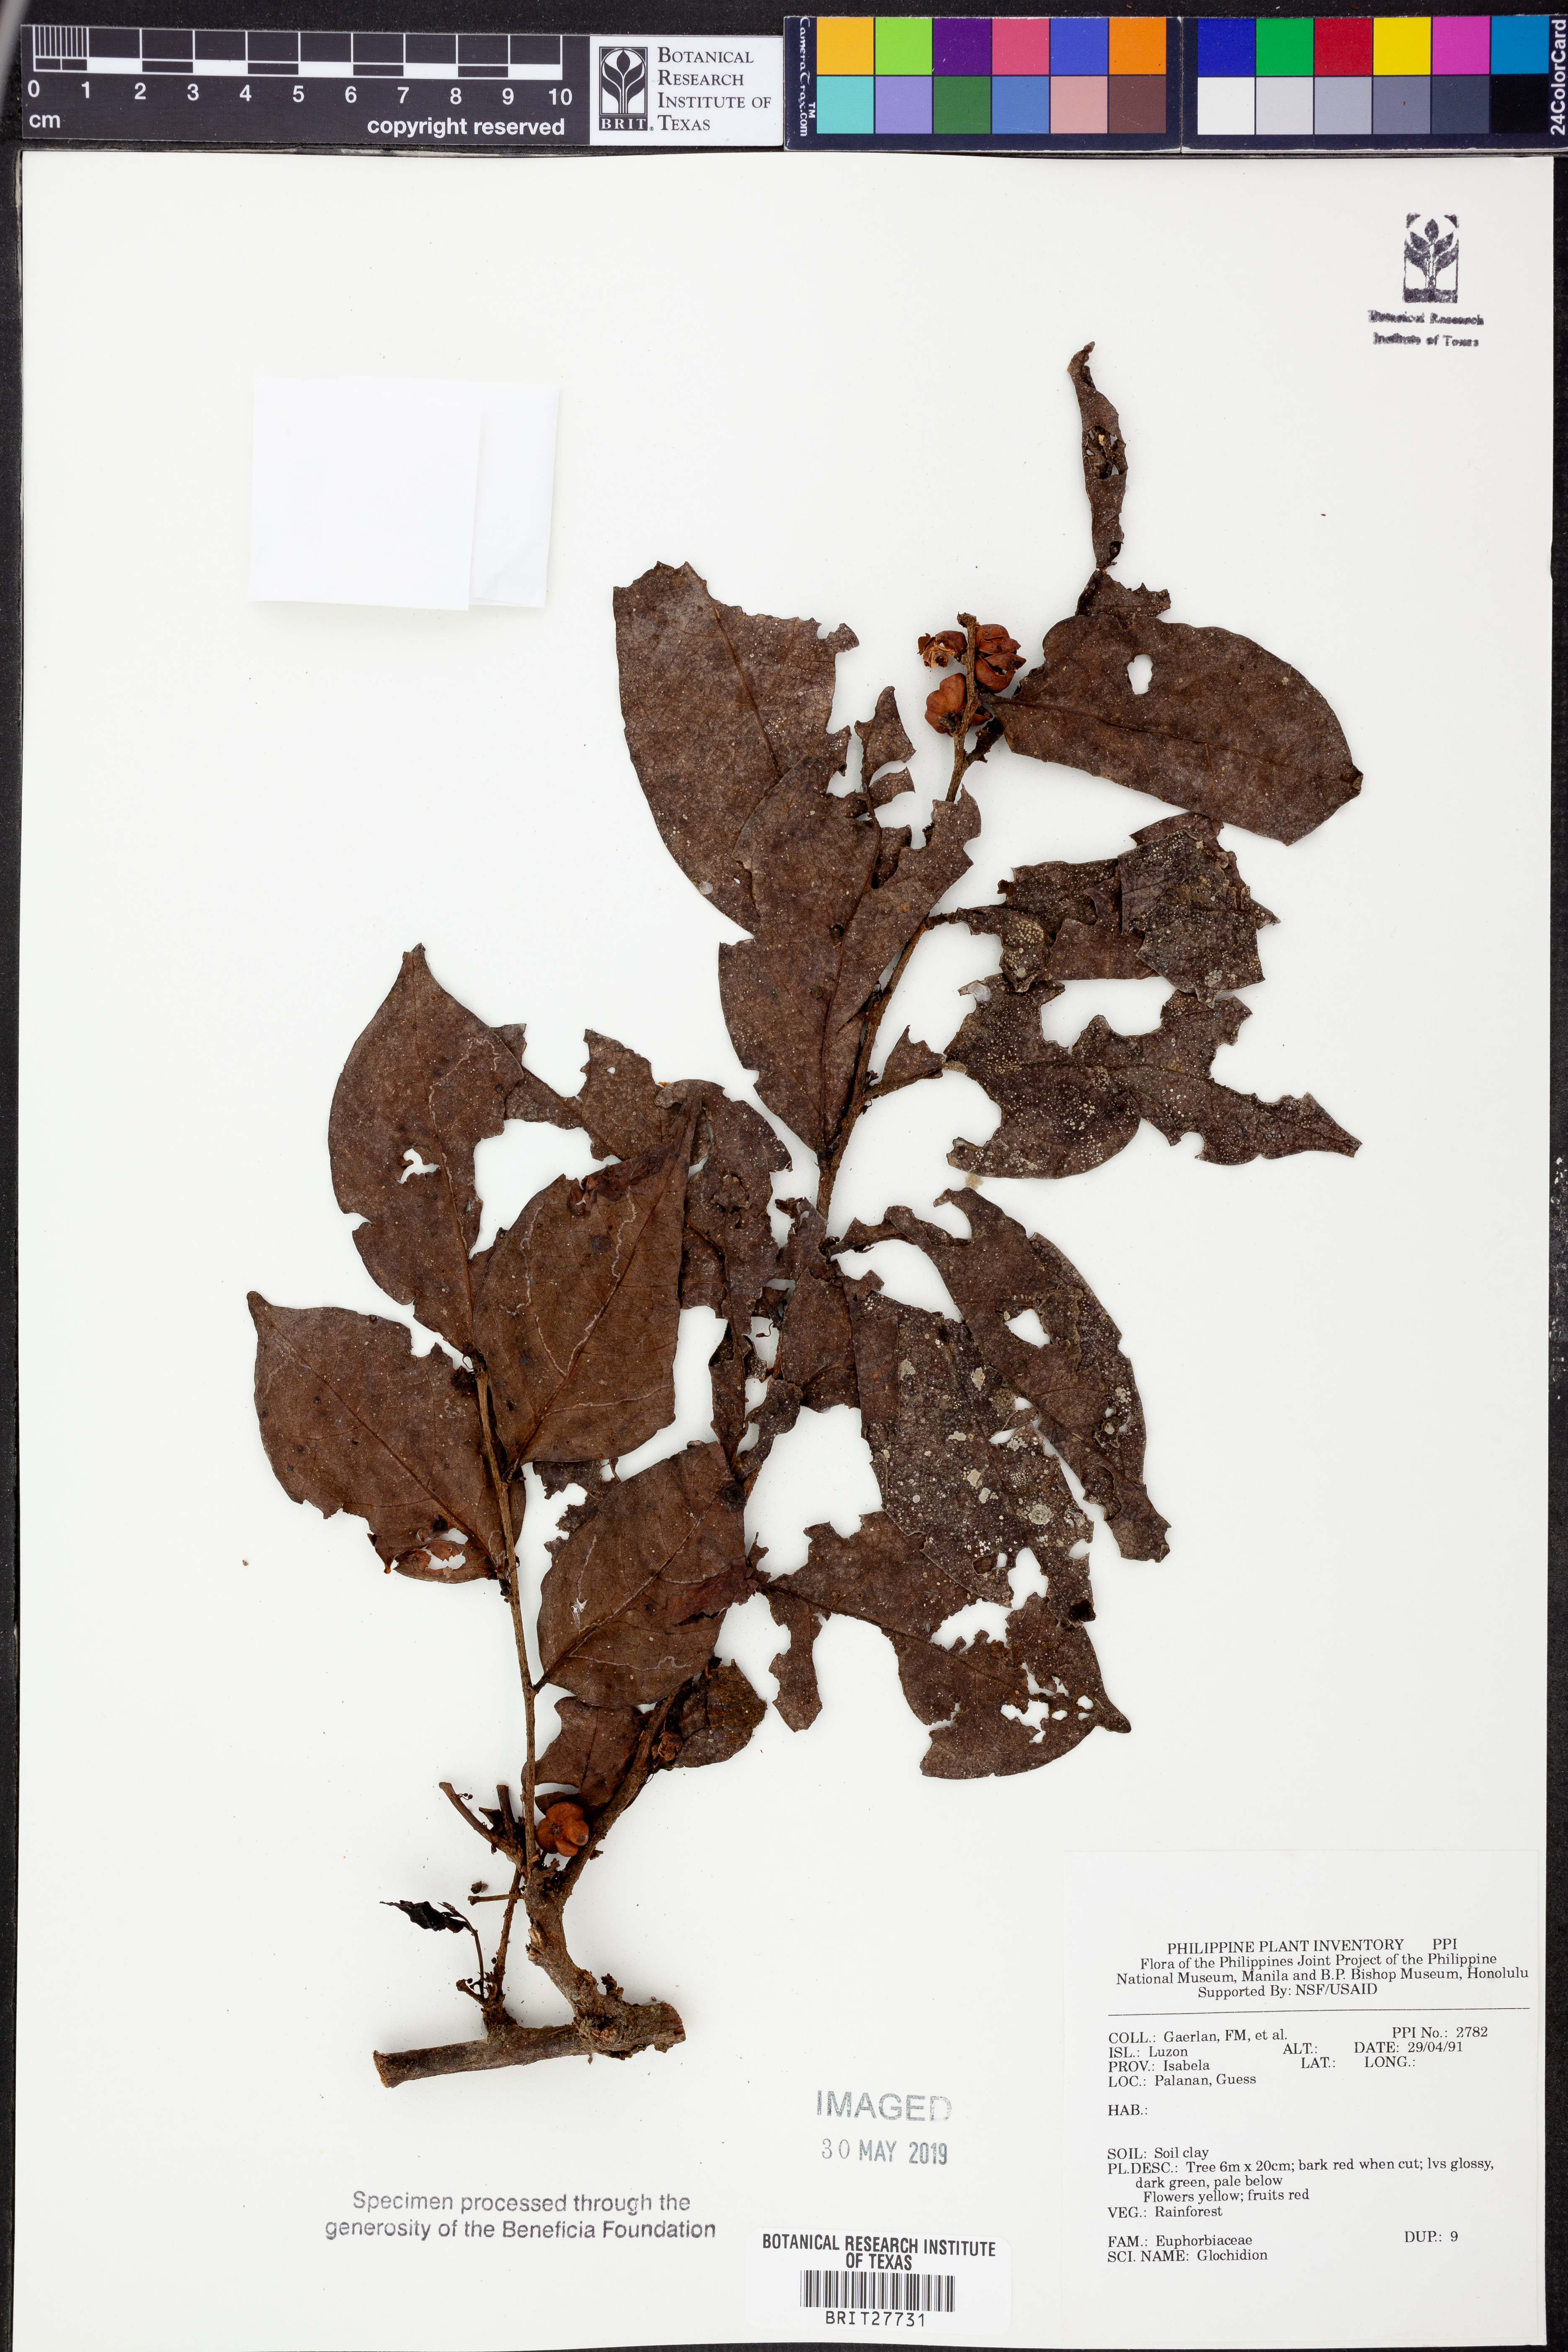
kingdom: Plantae
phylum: Tracheophyta
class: Magnoliopsida
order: Malpighiales
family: Phyllanthaceae
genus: Glochidion
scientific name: Glochidion
